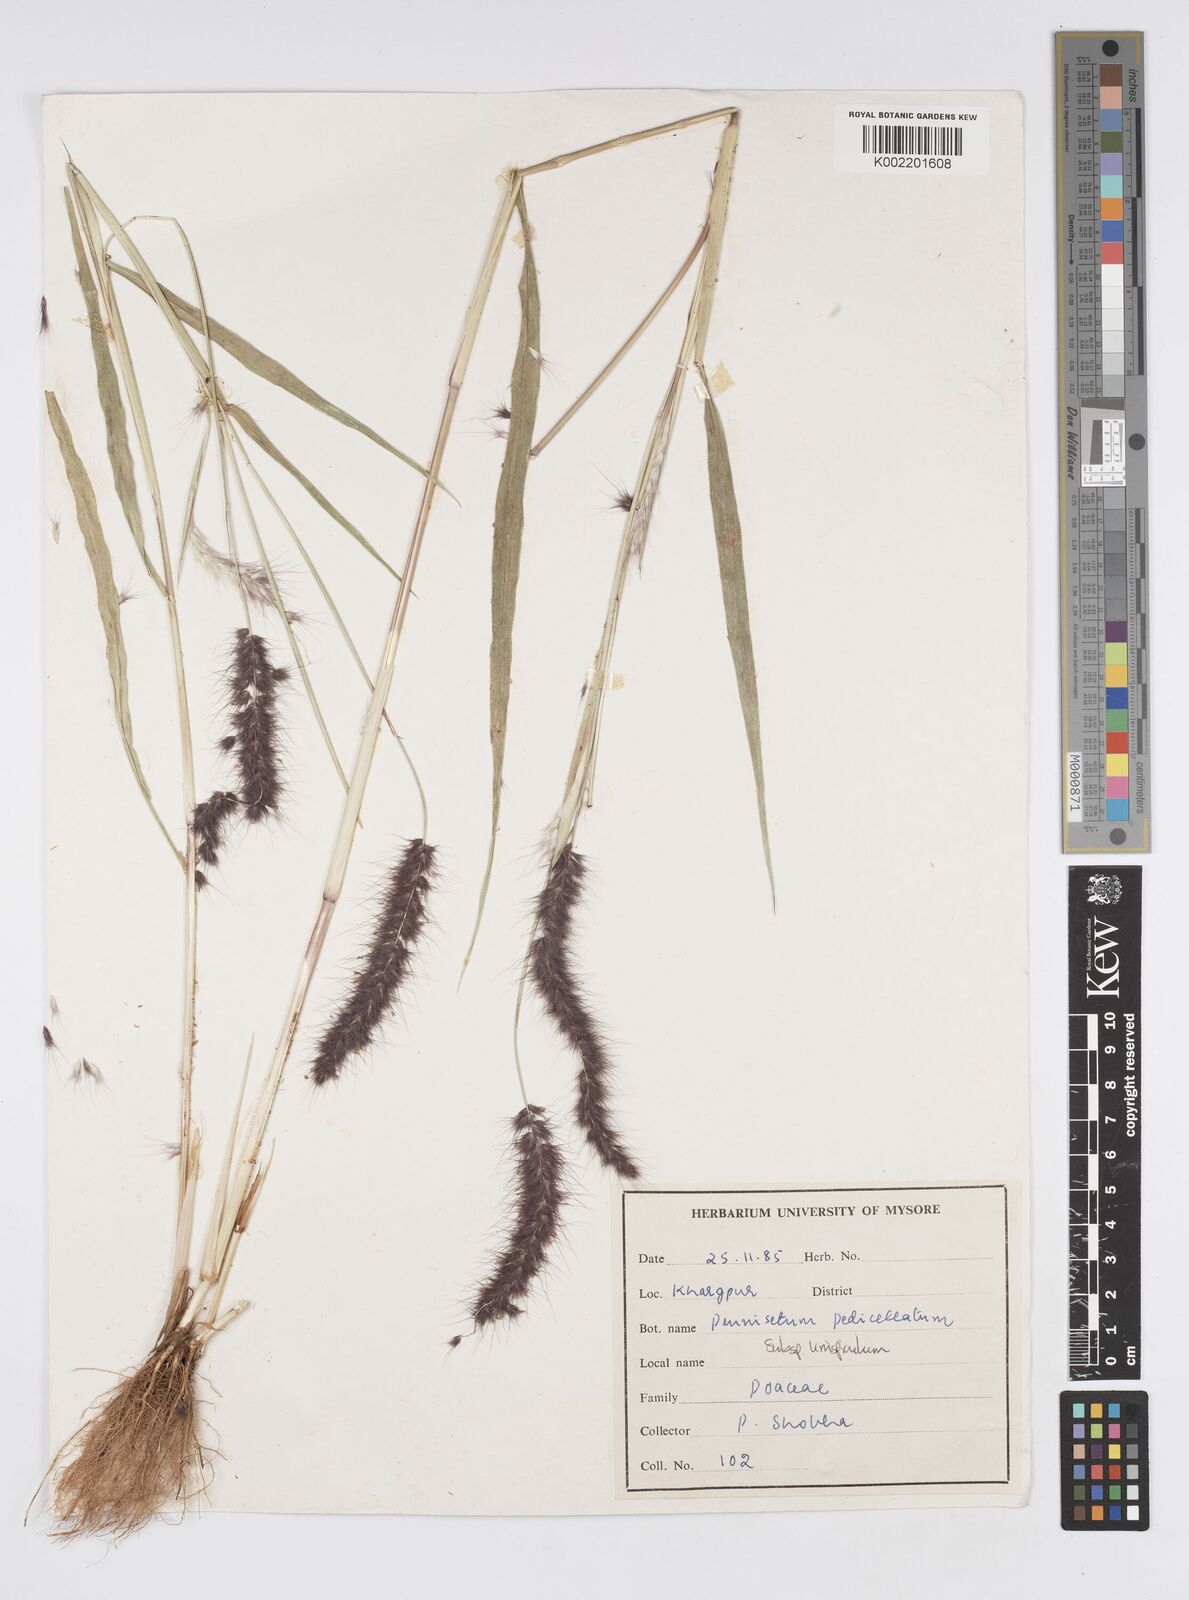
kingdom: Plantae
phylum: Tracheophyta
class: Liliopsida
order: Poales
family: Poaceae
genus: Cenchrus
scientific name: Cenchrus pedicellatus
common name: Hairy fountain grass
